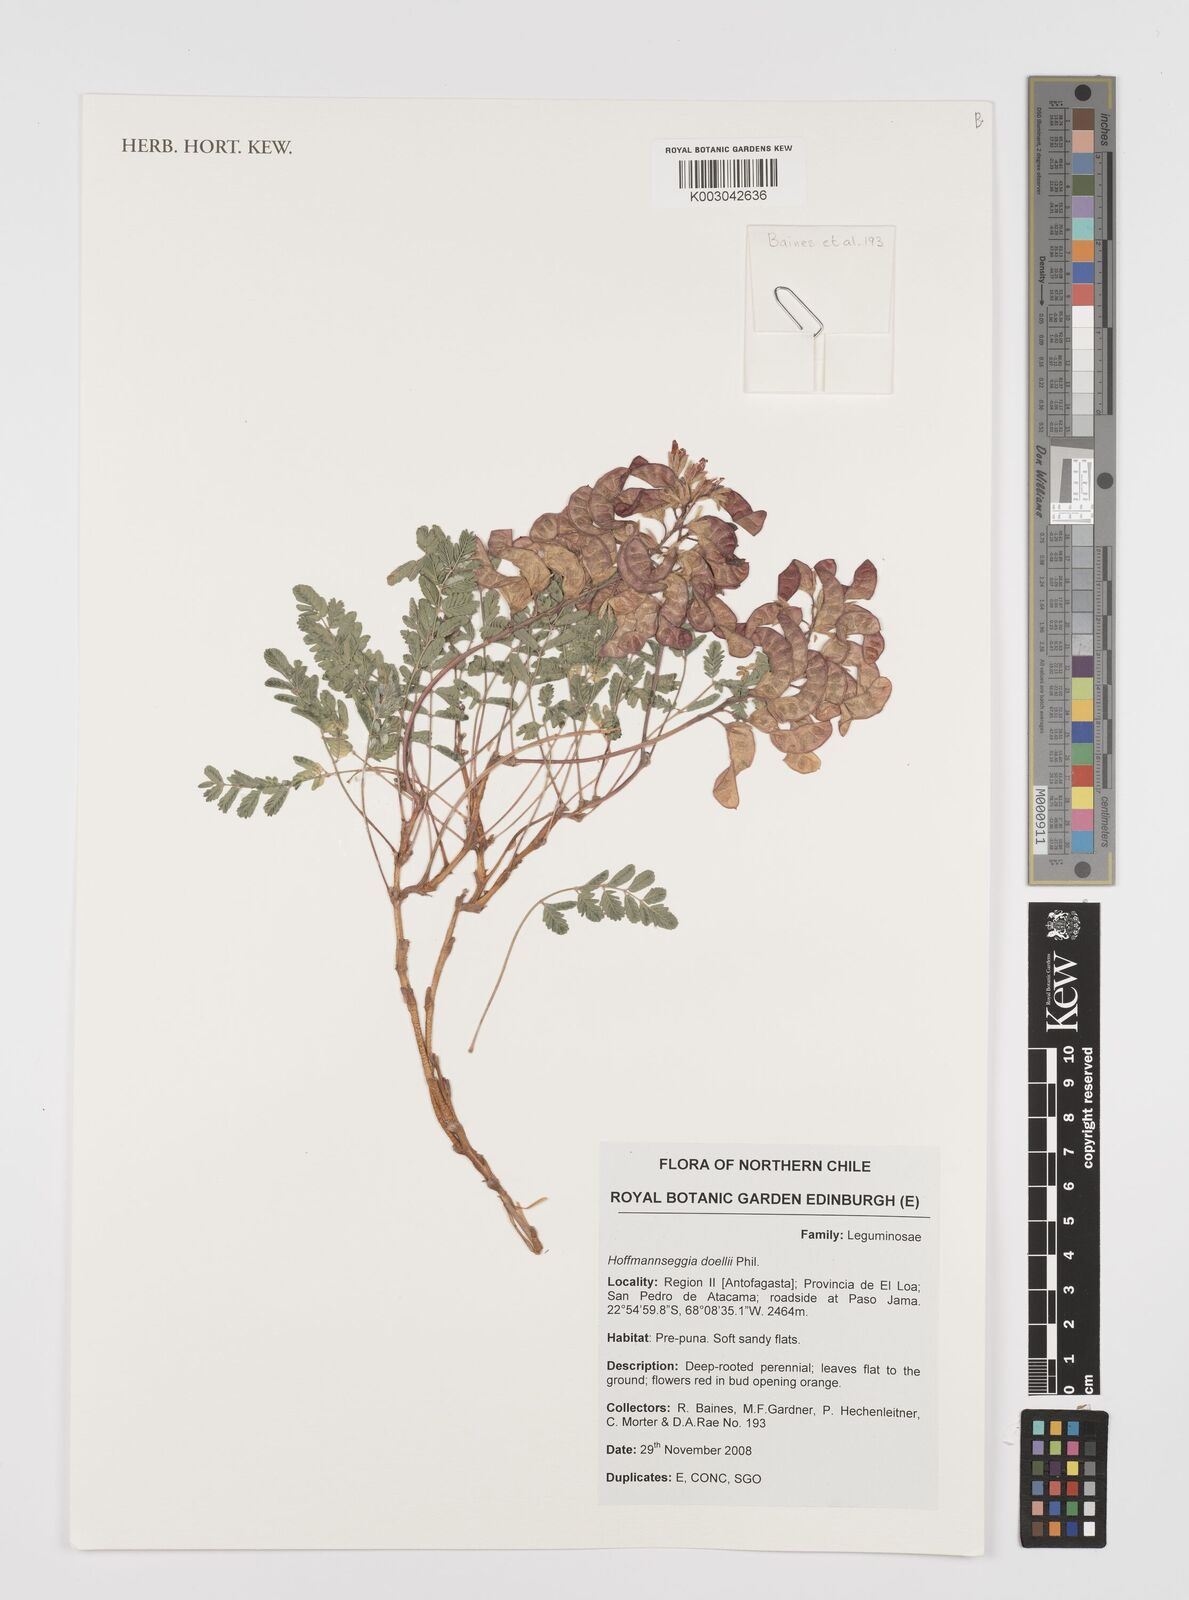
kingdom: Plantae
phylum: Tracheophyta
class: Magnoliopsida
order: Fabales
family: Fabaceae
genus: Hoffmannseggia
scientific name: Hoffmannseggia doellii
